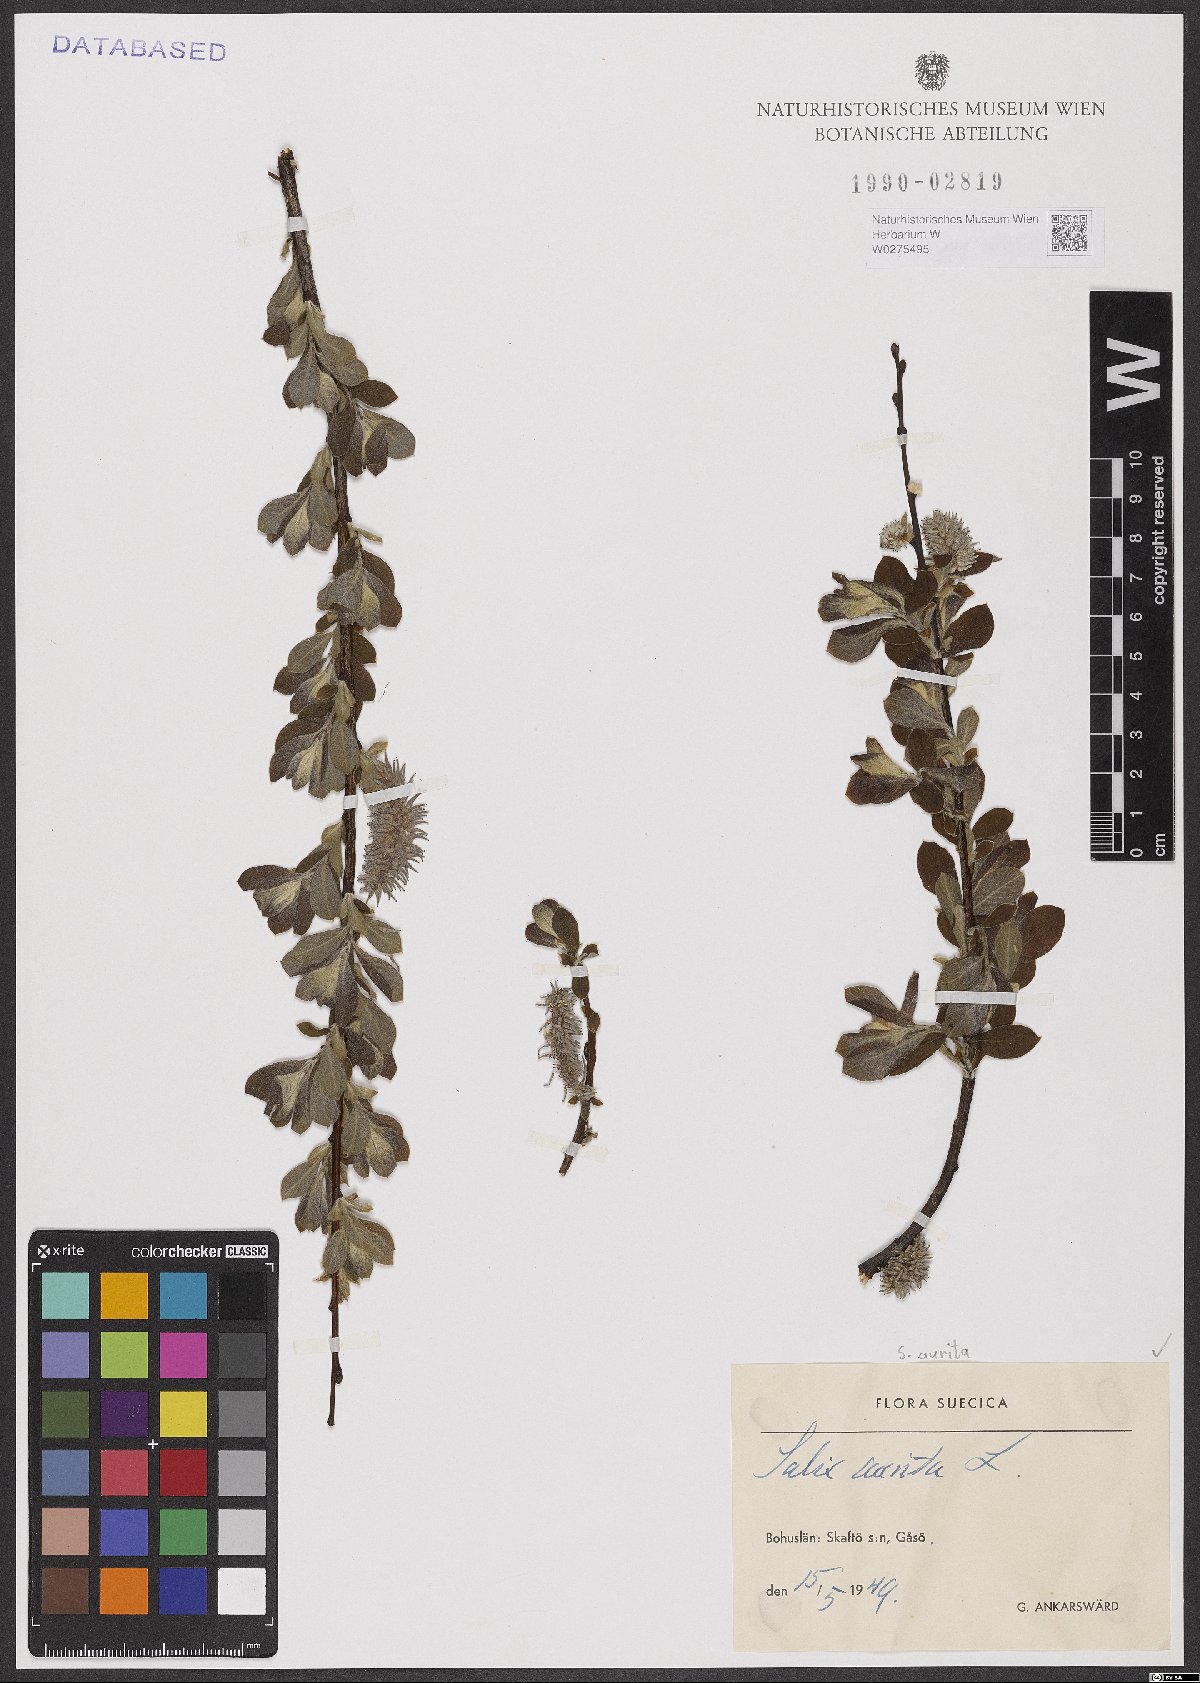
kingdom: Plantae
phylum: Tracheophyta
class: Magnoliopsida
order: Malpighiales
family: Salicaceae
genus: Salix
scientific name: Salix aurita
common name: Eared willow
